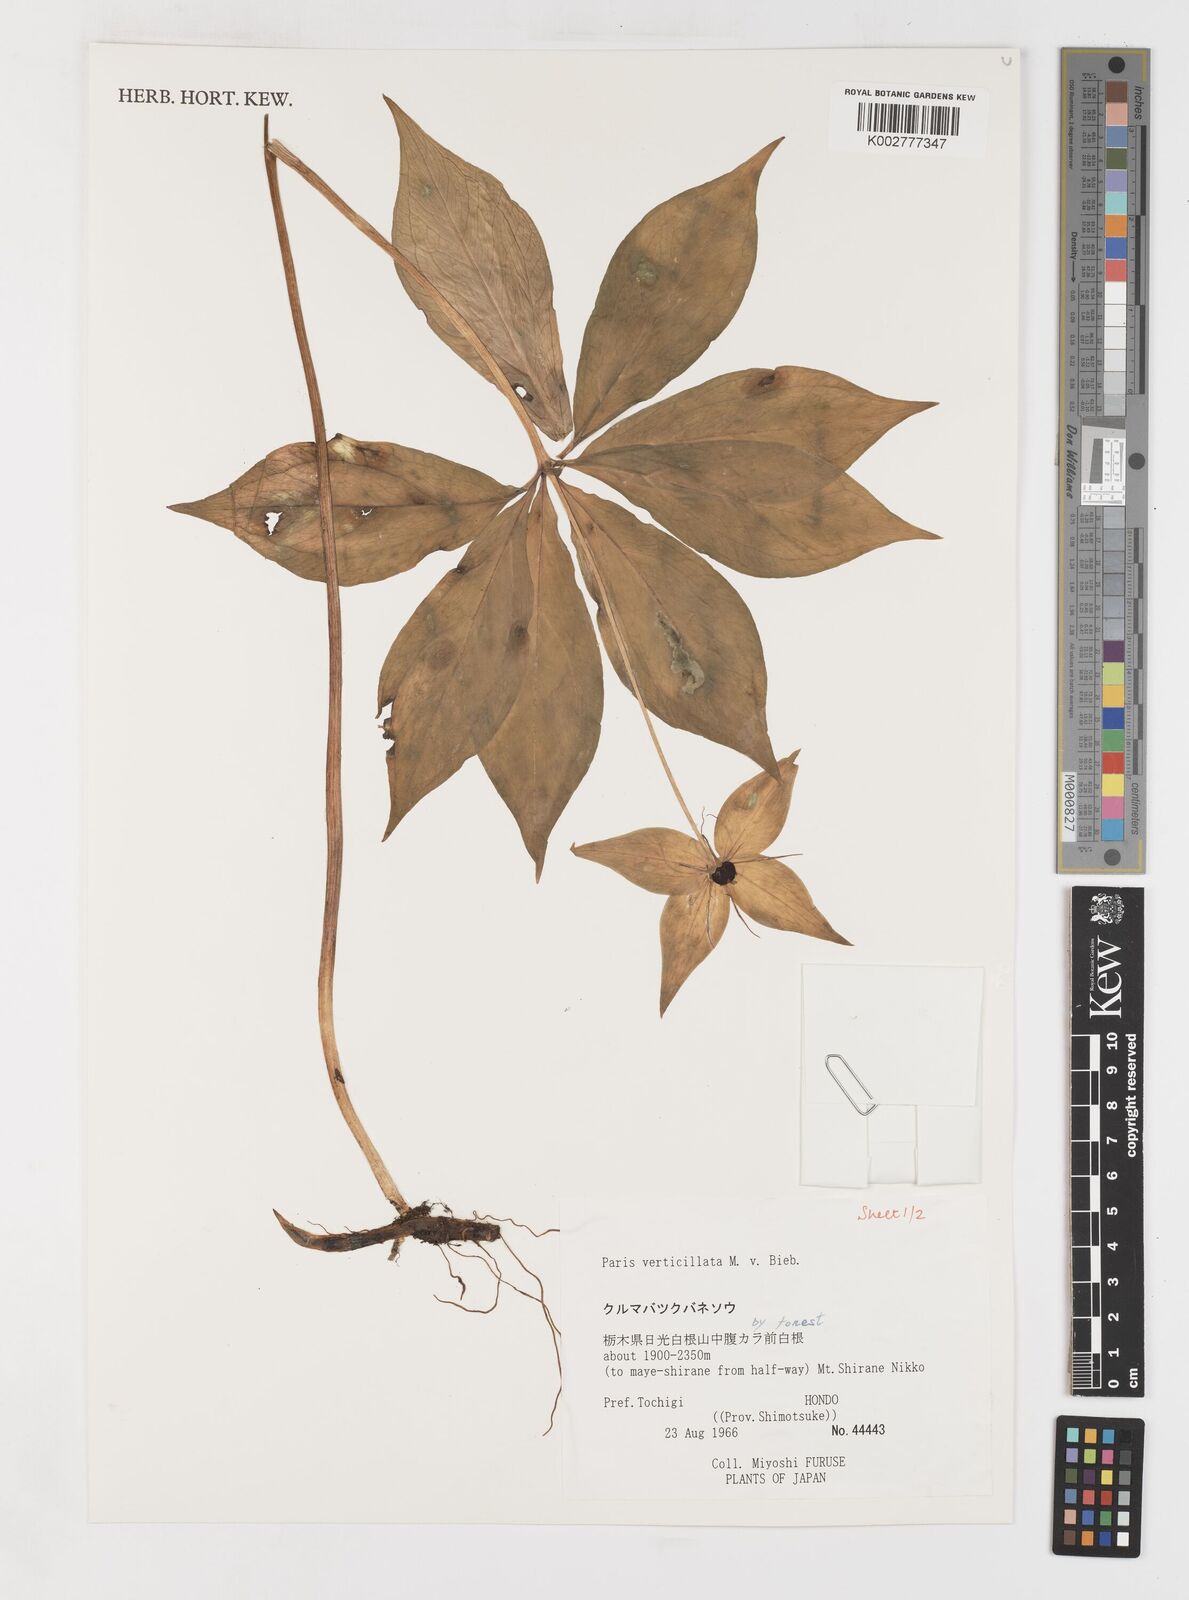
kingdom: Plantae
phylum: Tracheophyta
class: Liliopsida
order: Liliales
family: Melanthiaceae
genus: Paris
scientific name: Paris verticillata
